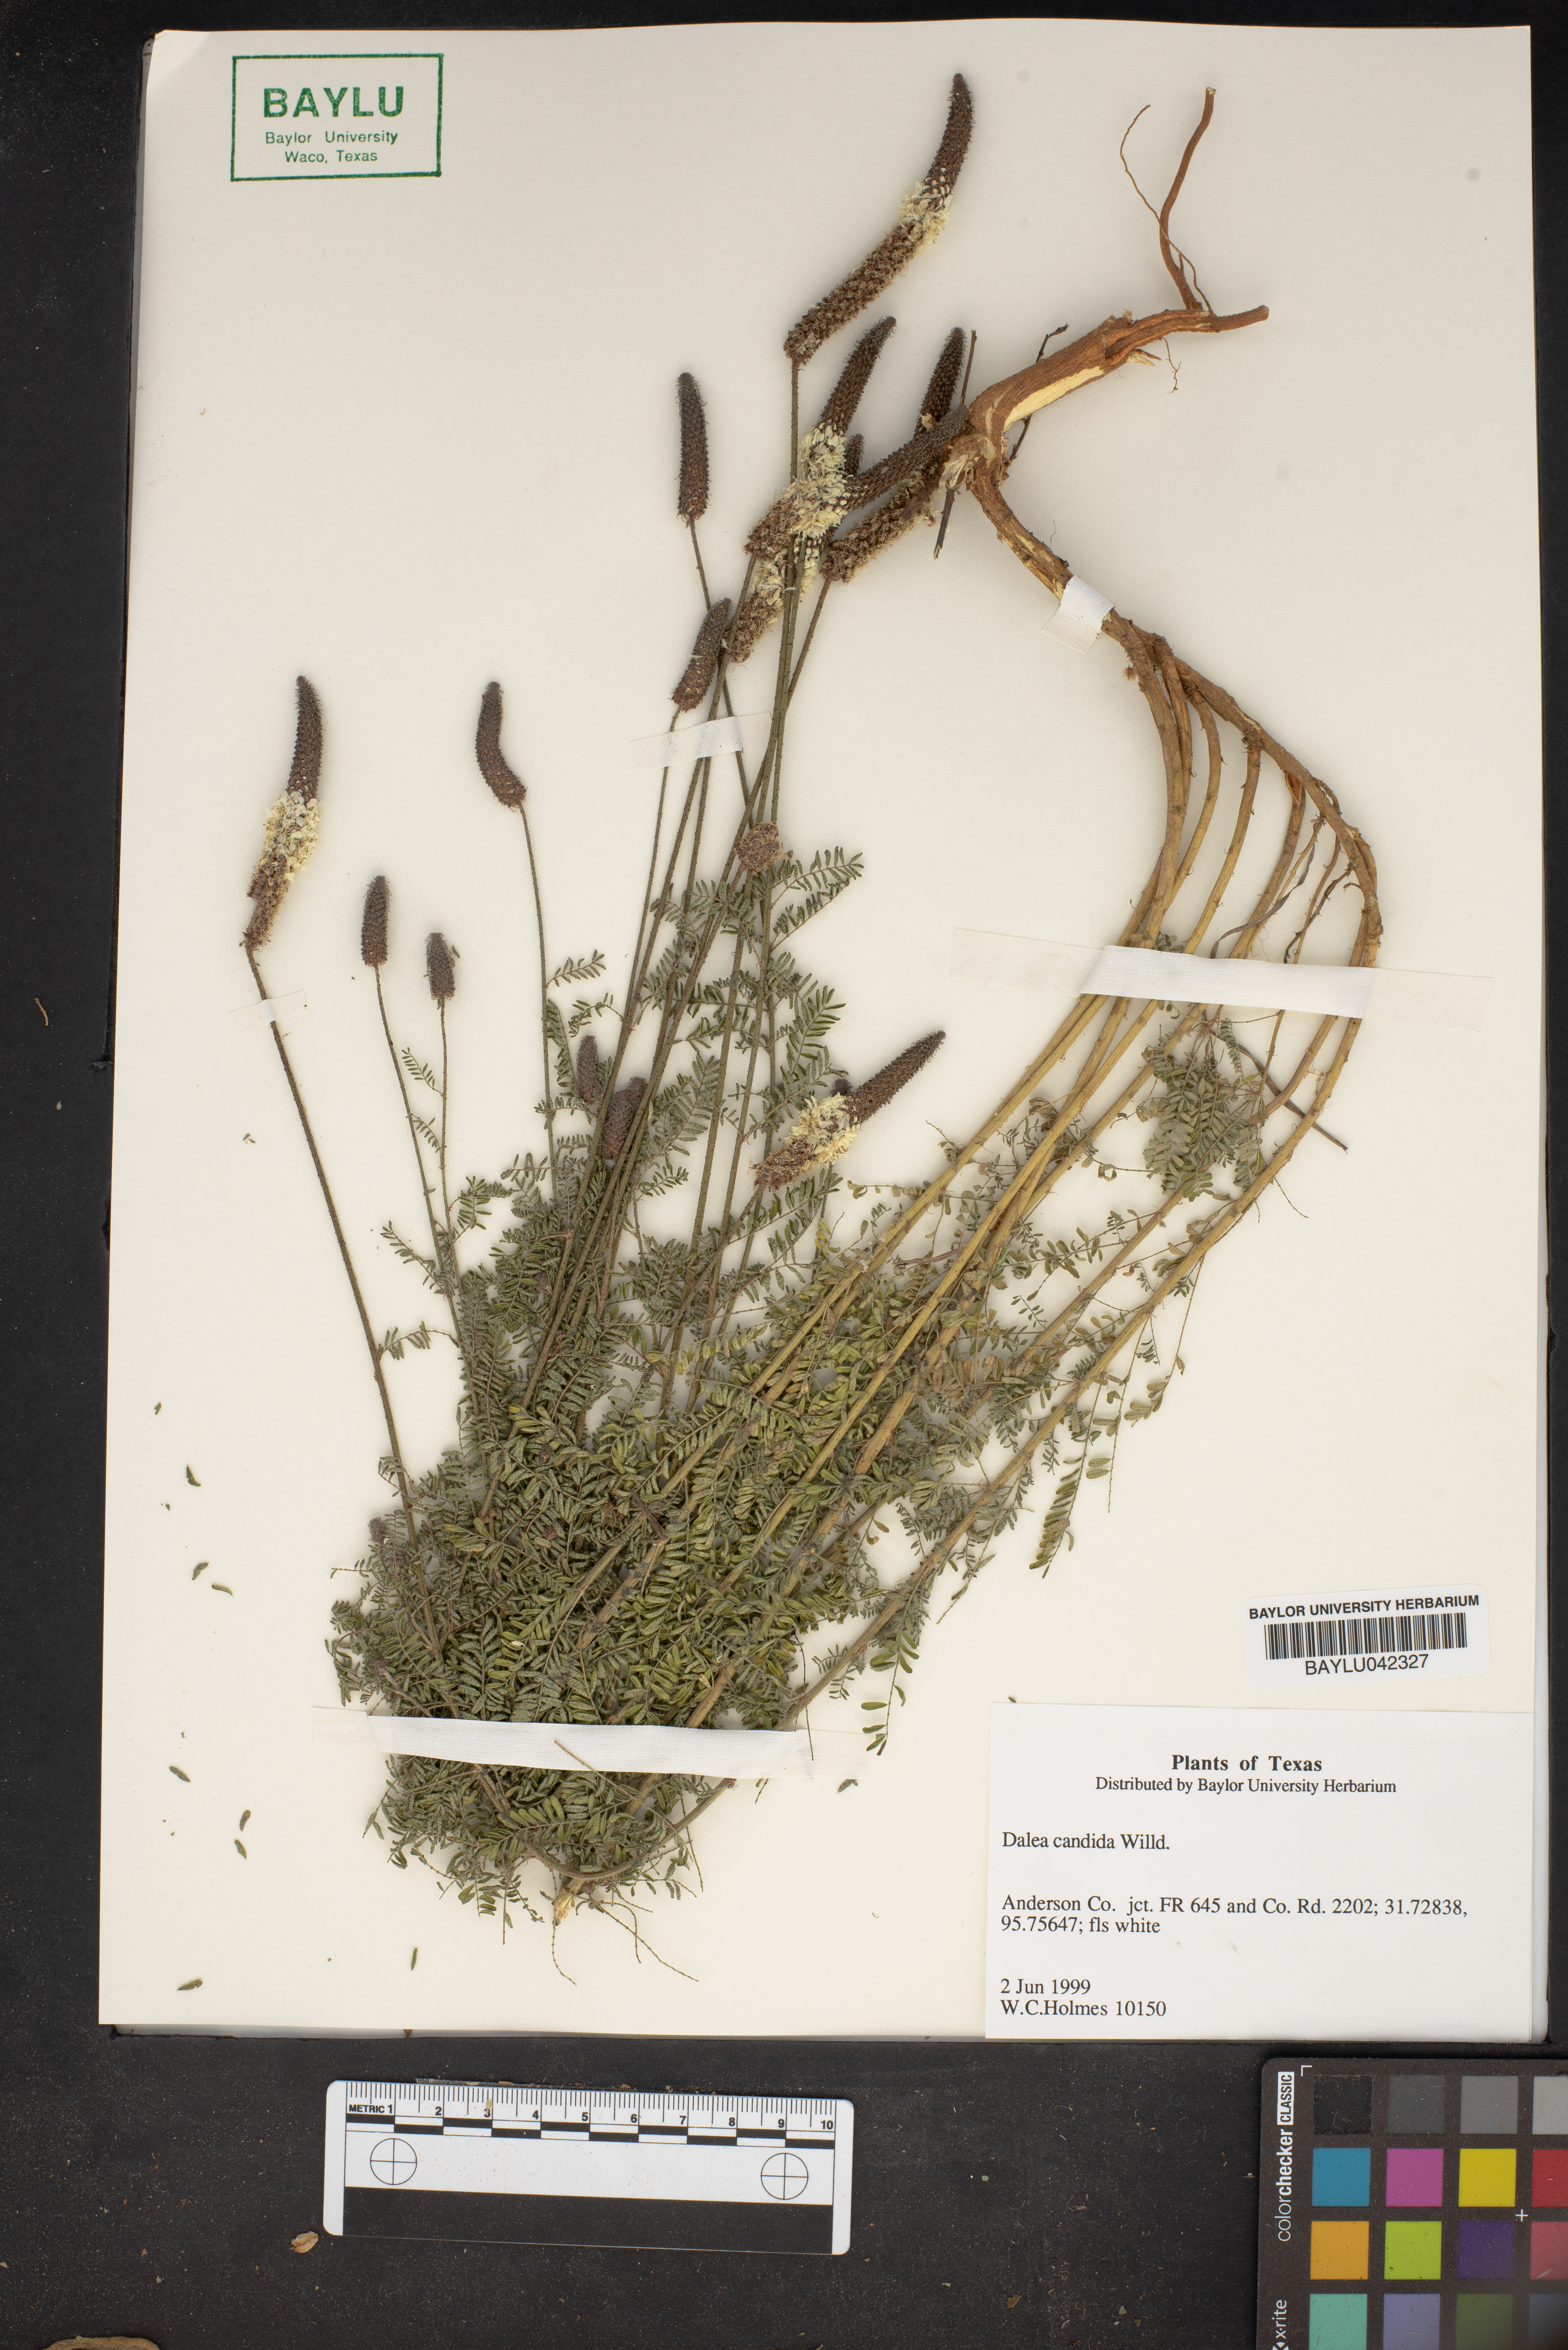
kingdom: Plantae
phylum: Tracheophyta
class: Magnoliopsida
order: Fabales
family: Fabaceae
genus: Dalea
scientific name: Dalea candida
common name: White prairie-clover
